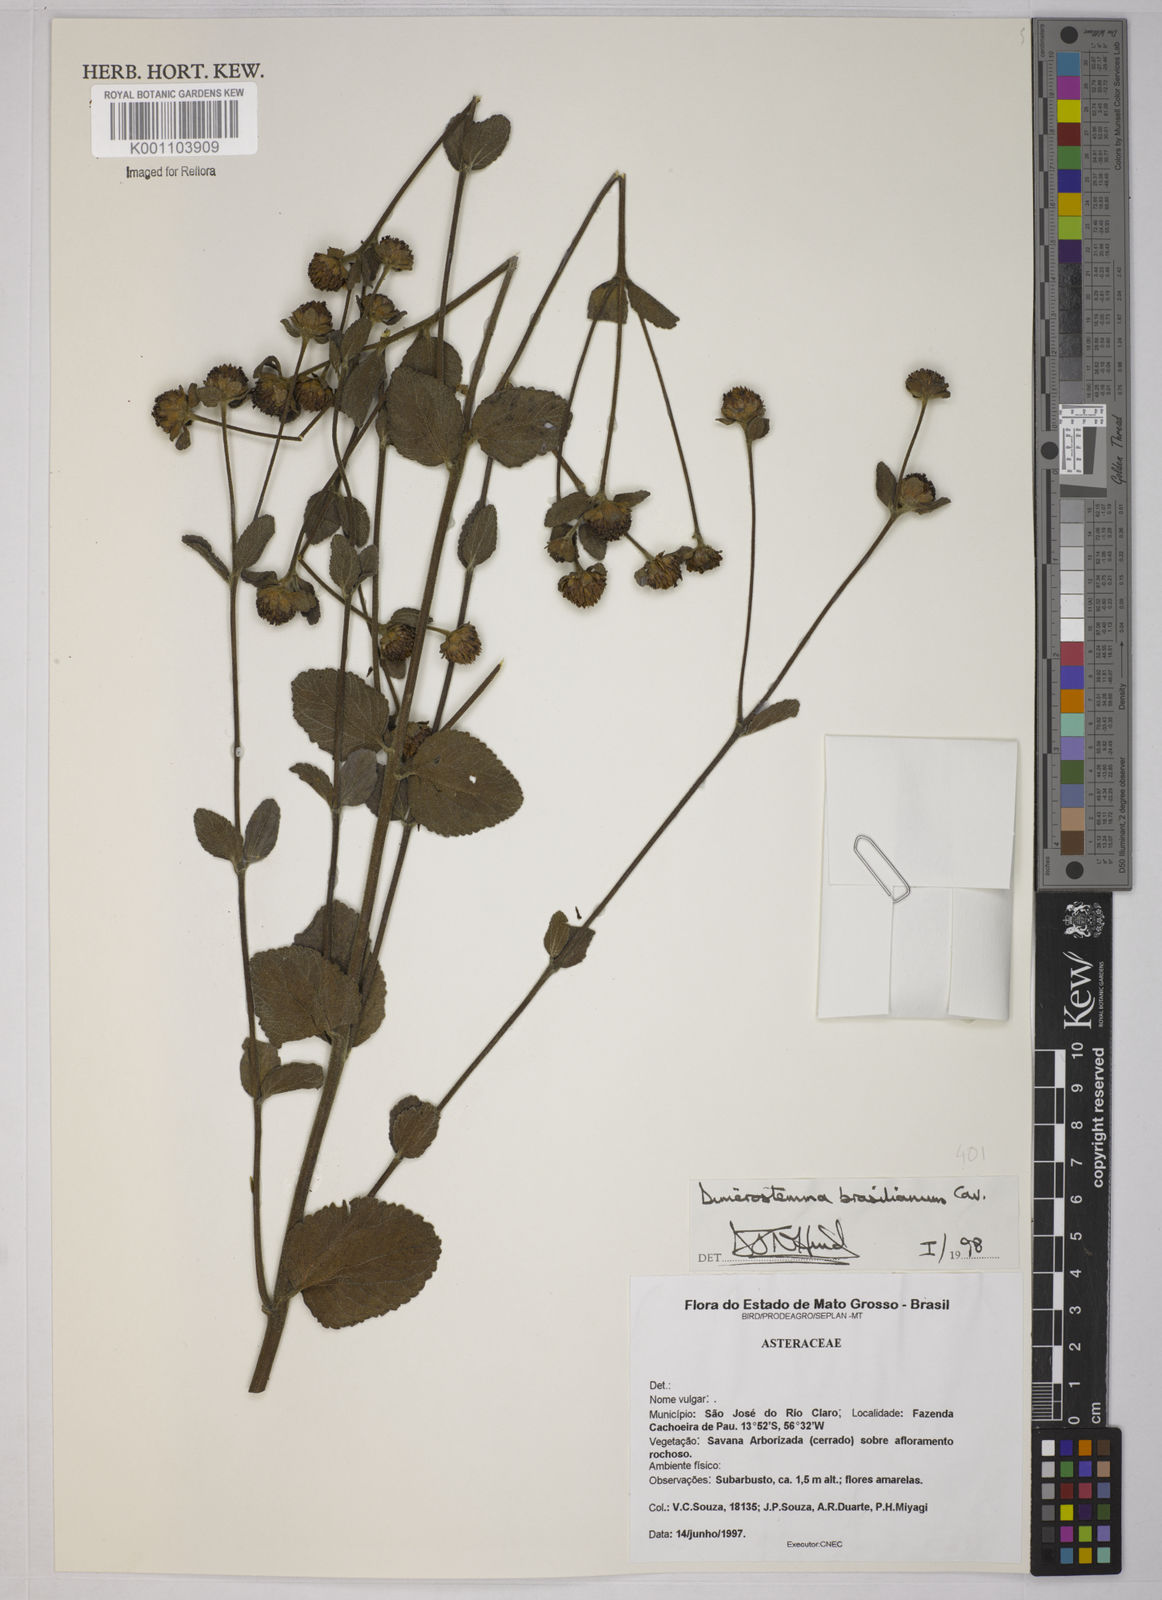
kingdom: Plantae
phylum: Tracheophyta
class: Magnoliopsida
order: Asterales
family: Asteraceae
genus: Dimerostemma
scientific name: Dimerostemma brasilianum
